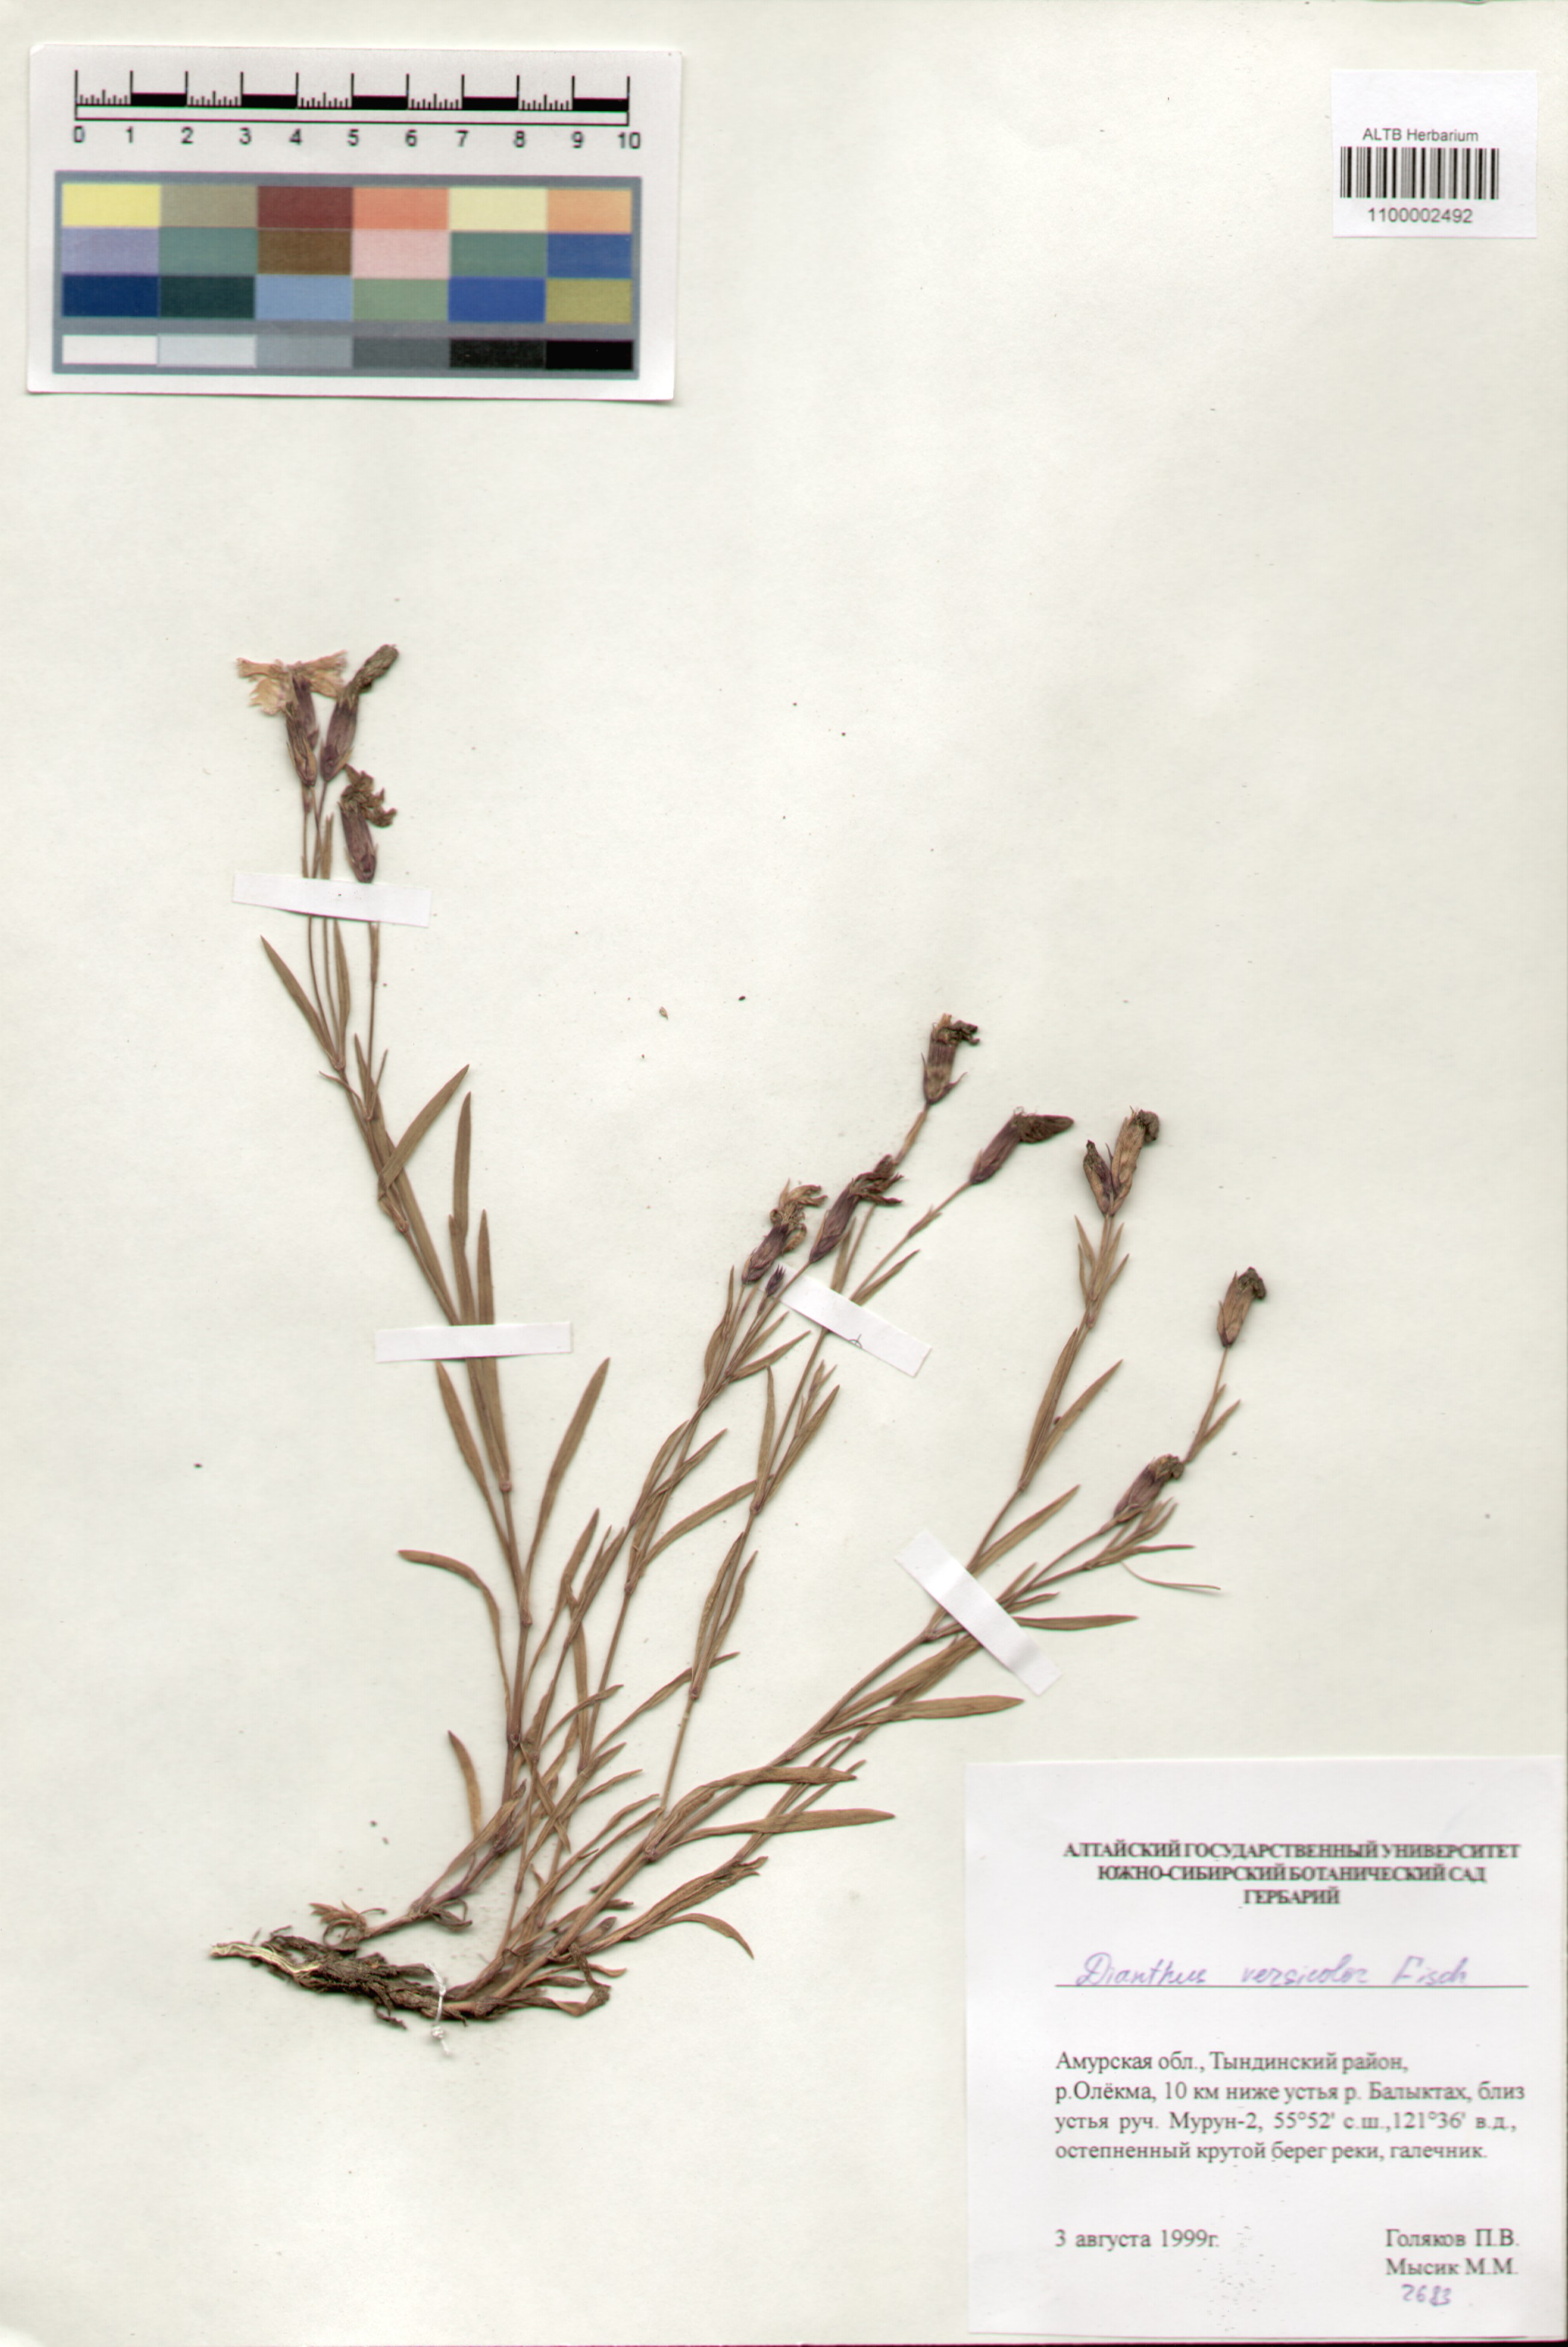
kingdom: Plantae
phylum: Tracheophyta
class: Magnoliopsida
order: Caryophyllales
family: Caryophyllaceae
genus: Dianthus
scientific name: Dianthus chinensis
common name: Rainbow pink
